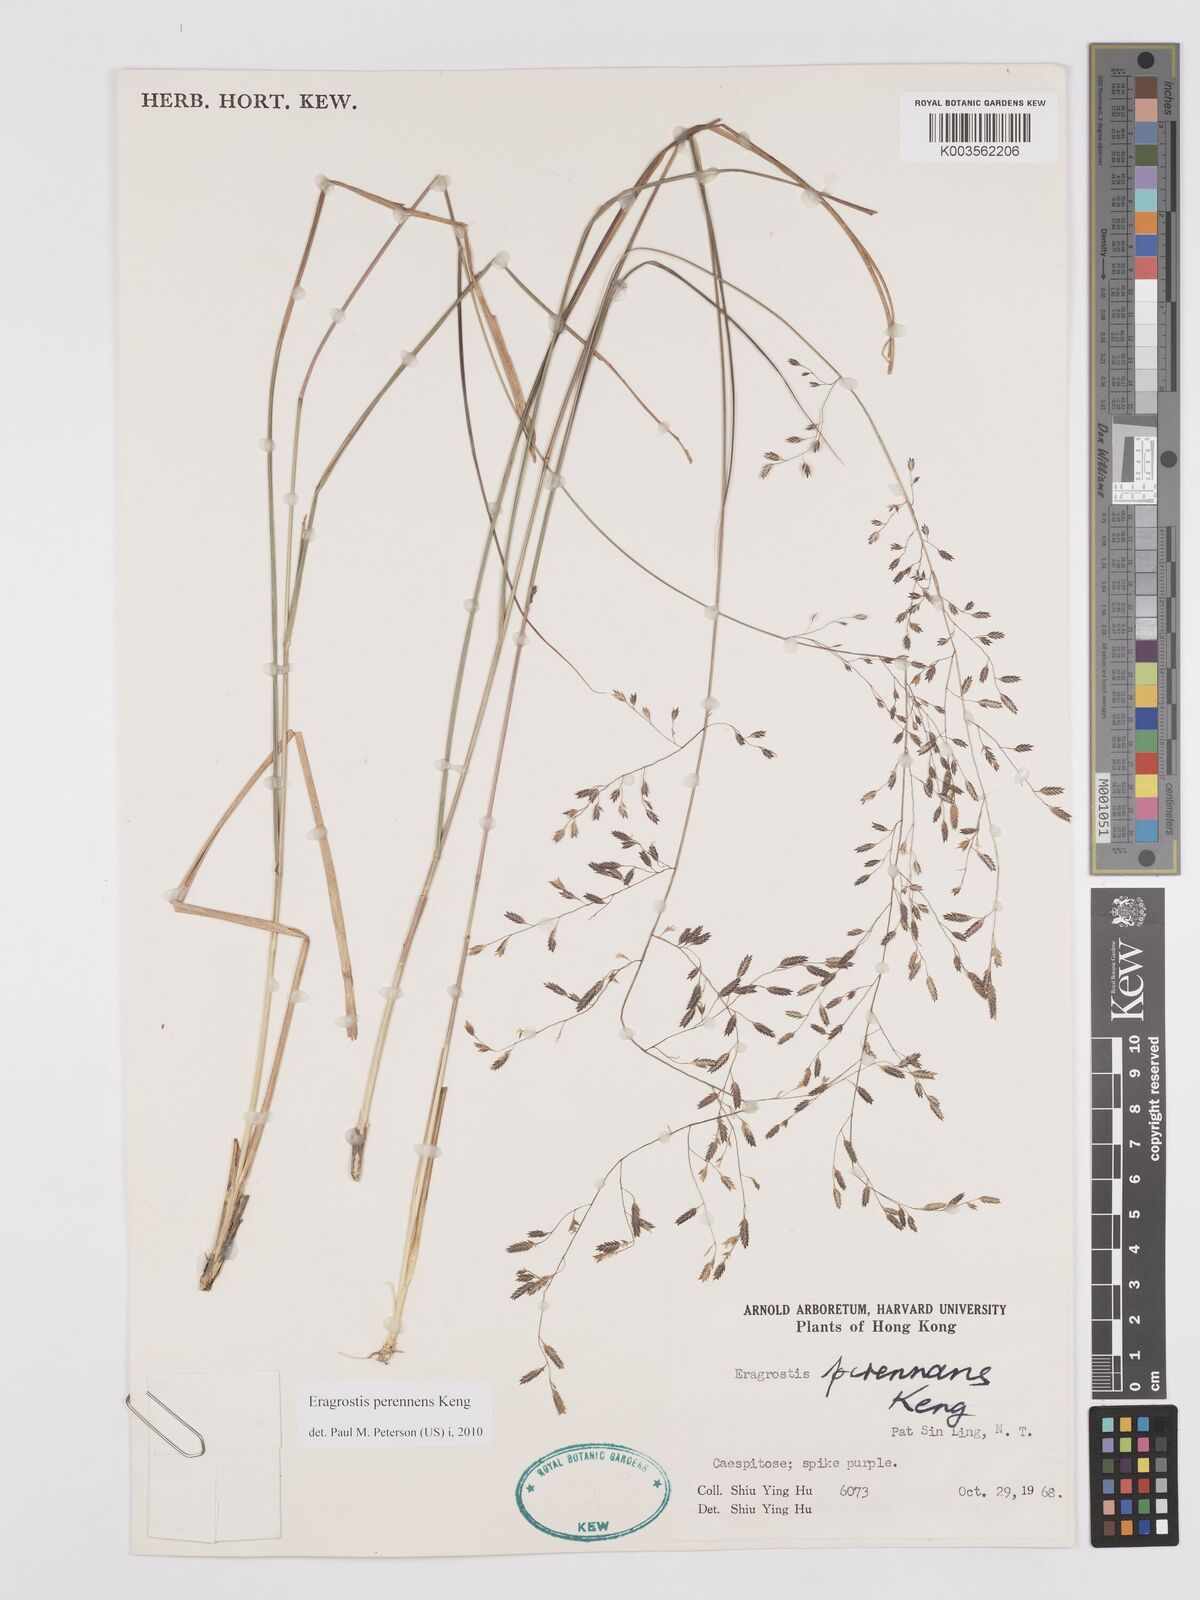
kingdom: Plantae
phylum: Tracheophyta
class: Liliopsida
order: Poales
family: Poaceae
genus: Eragrostis
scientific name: Eragrostis perennans
